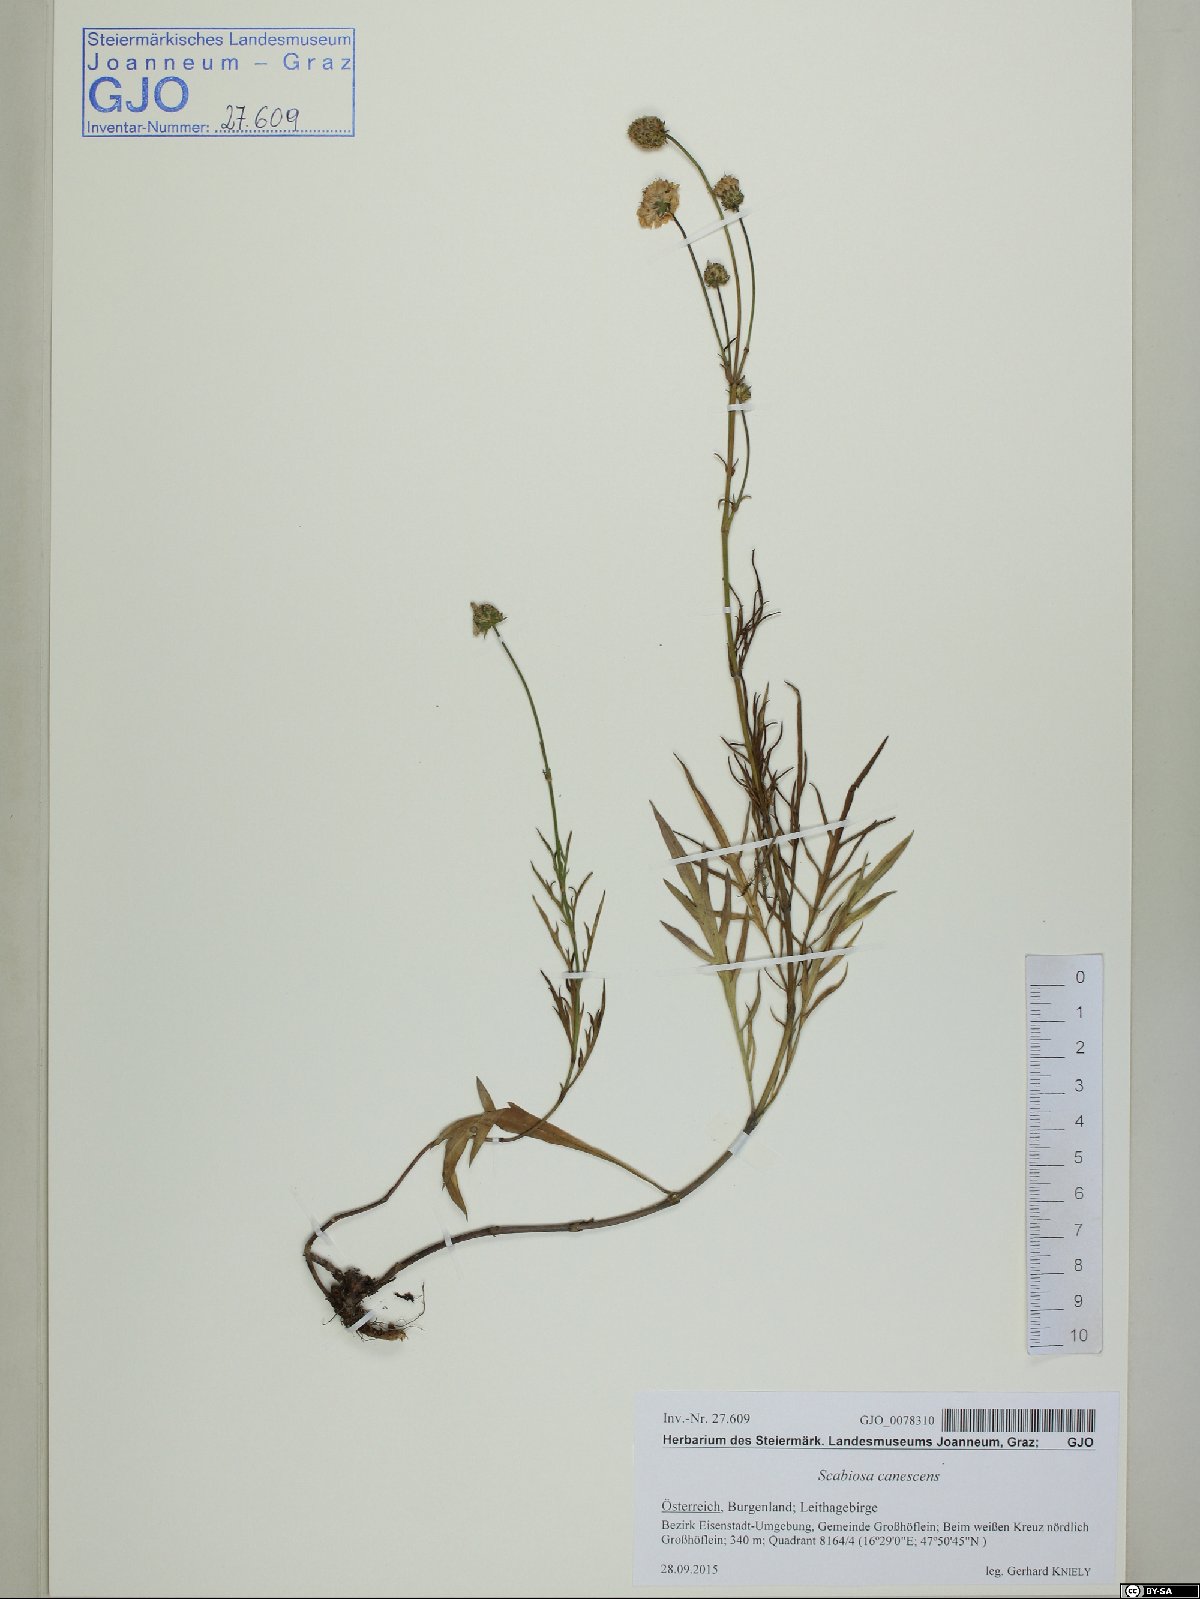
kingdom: Plantae
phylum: Tracheophyta
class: Magnoliopsida
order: Dipsacales
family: Caprifoliaceae
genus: Scabiosa
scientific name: Scabiosa canescens
